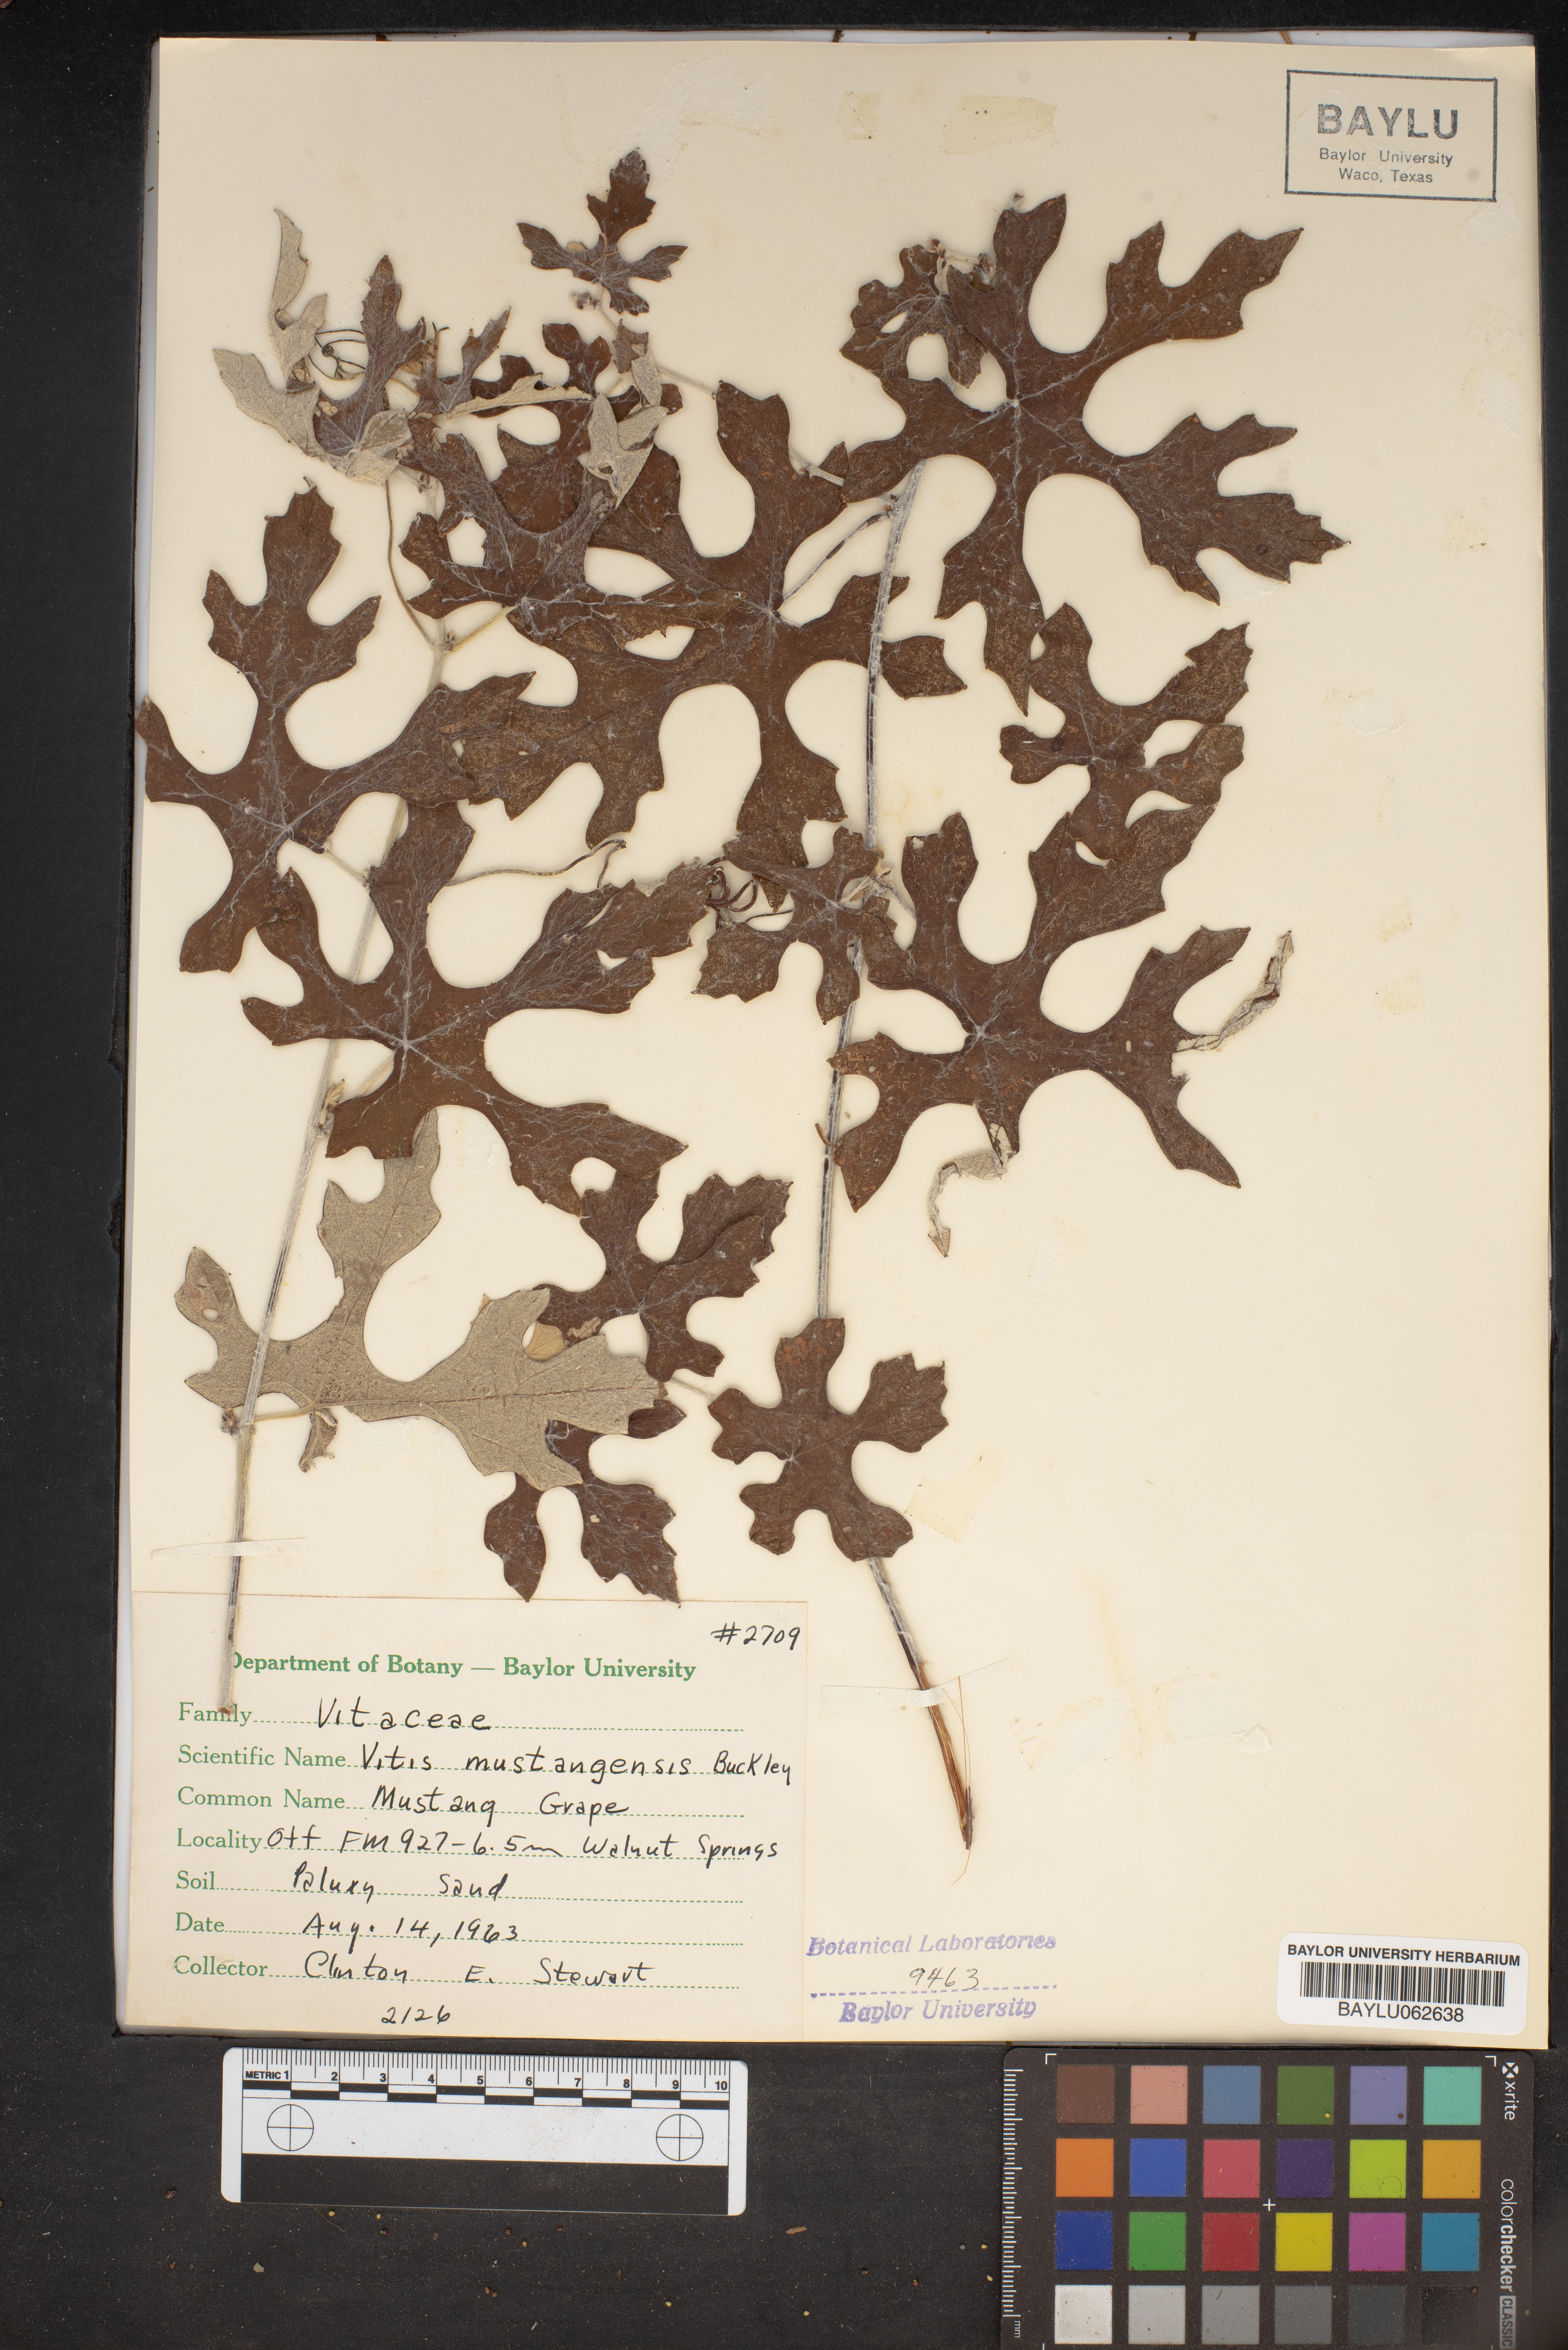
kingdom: Plantae
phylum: Tracheophyta
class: Magnoliopsida
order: Vitales
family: Vitaceae
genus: Vitis
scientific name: Vitis mustangensis
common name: Mustang grape
